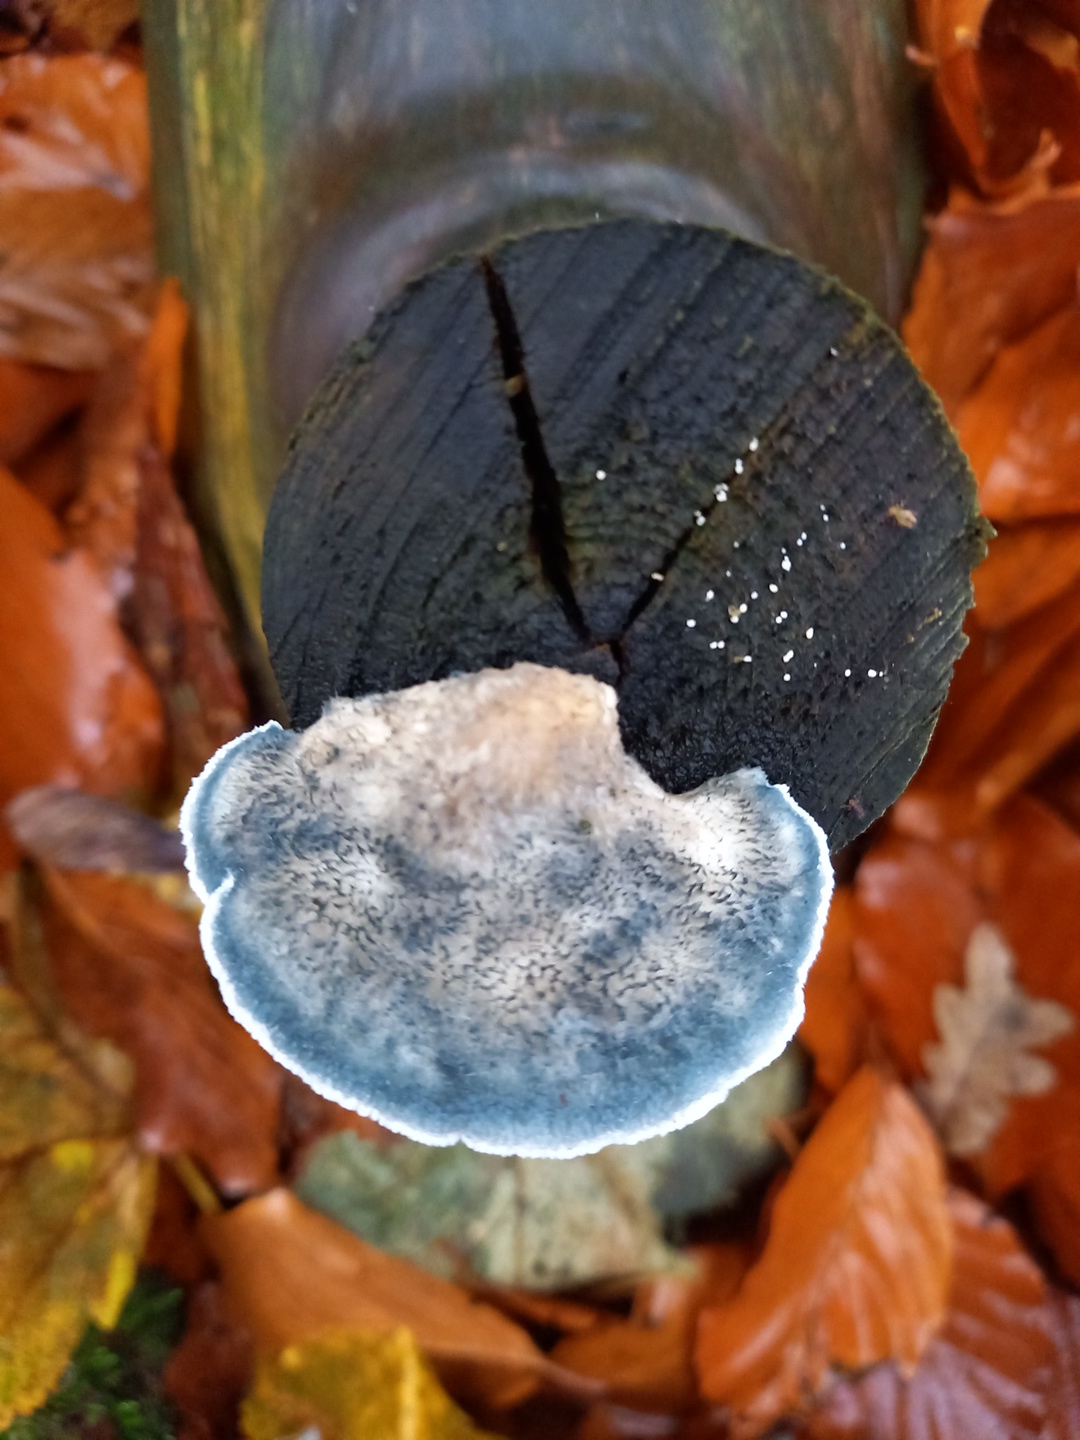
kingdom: Fungi
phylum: Basidiomycota
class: Agaricomycetes
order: Polyporales
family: Polyporaceae
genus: Cyanosporus
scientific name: Cyanosporus caesius
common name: blålig kødporesvamp
